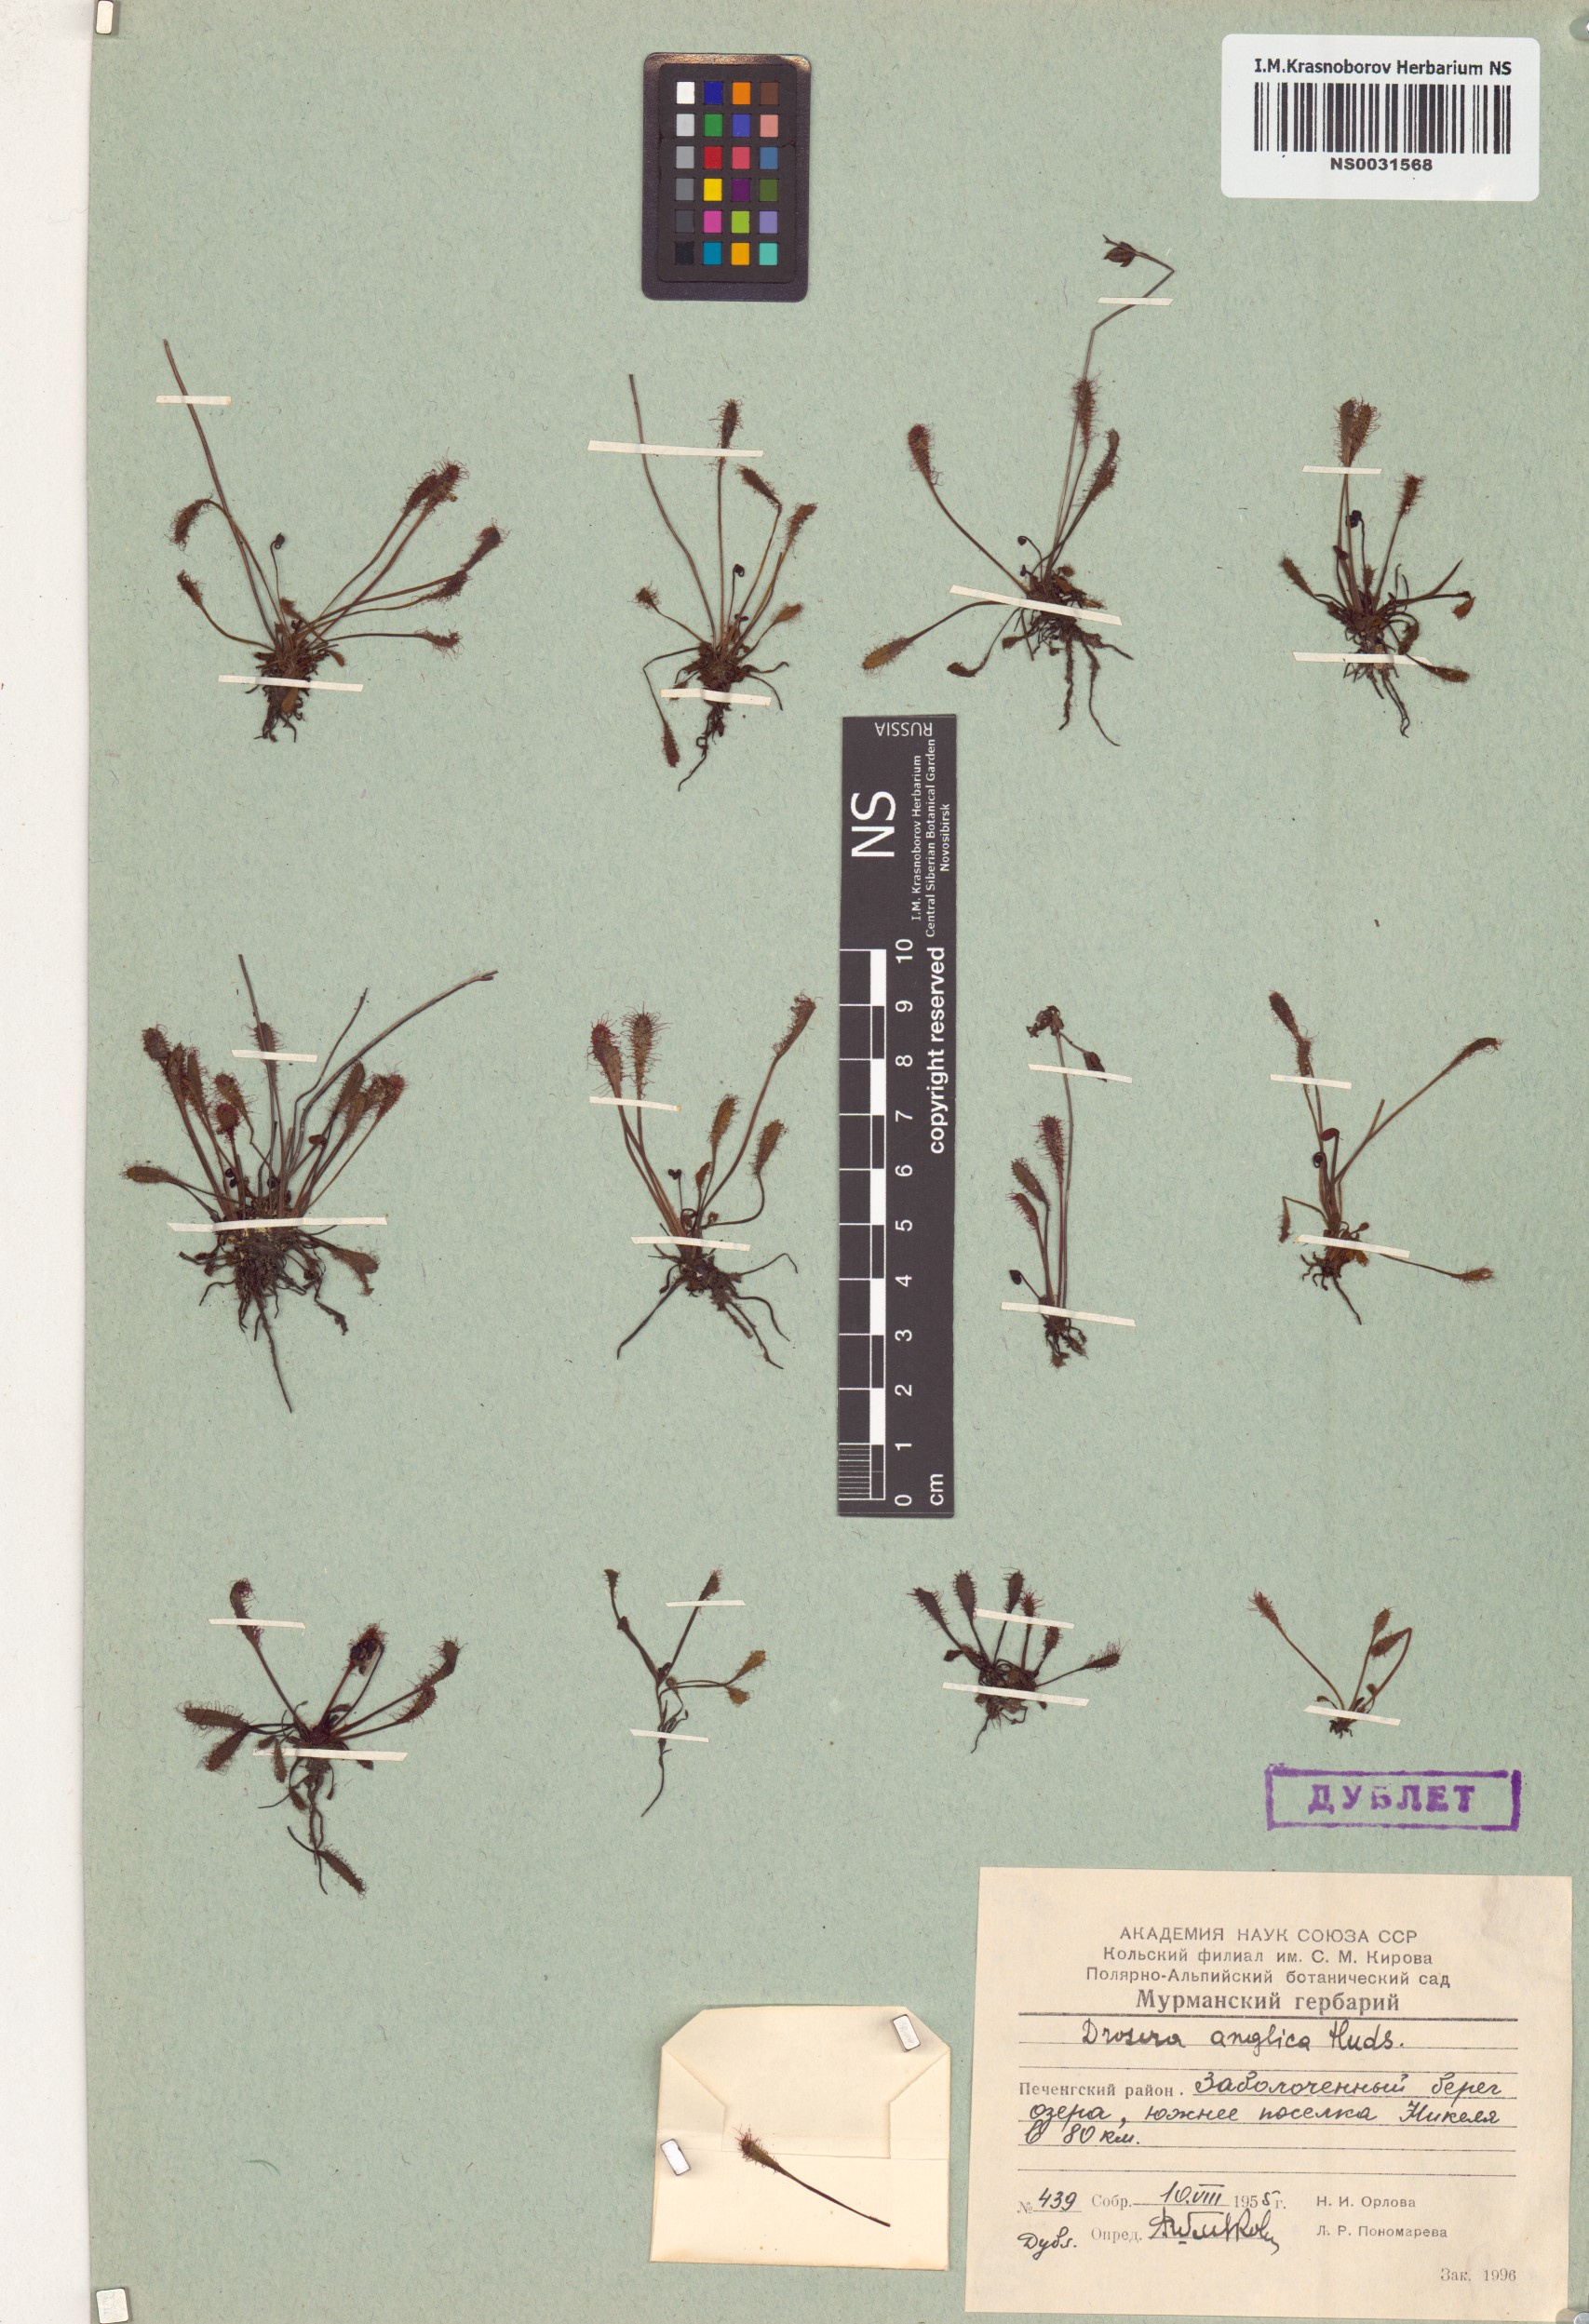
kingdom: Plantae
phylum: Tracheophyta
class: Magnoliopsida
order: Caryophyllales
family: Droseraceae
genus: Drosera
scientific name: Drosera anglica
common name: Great sundew
